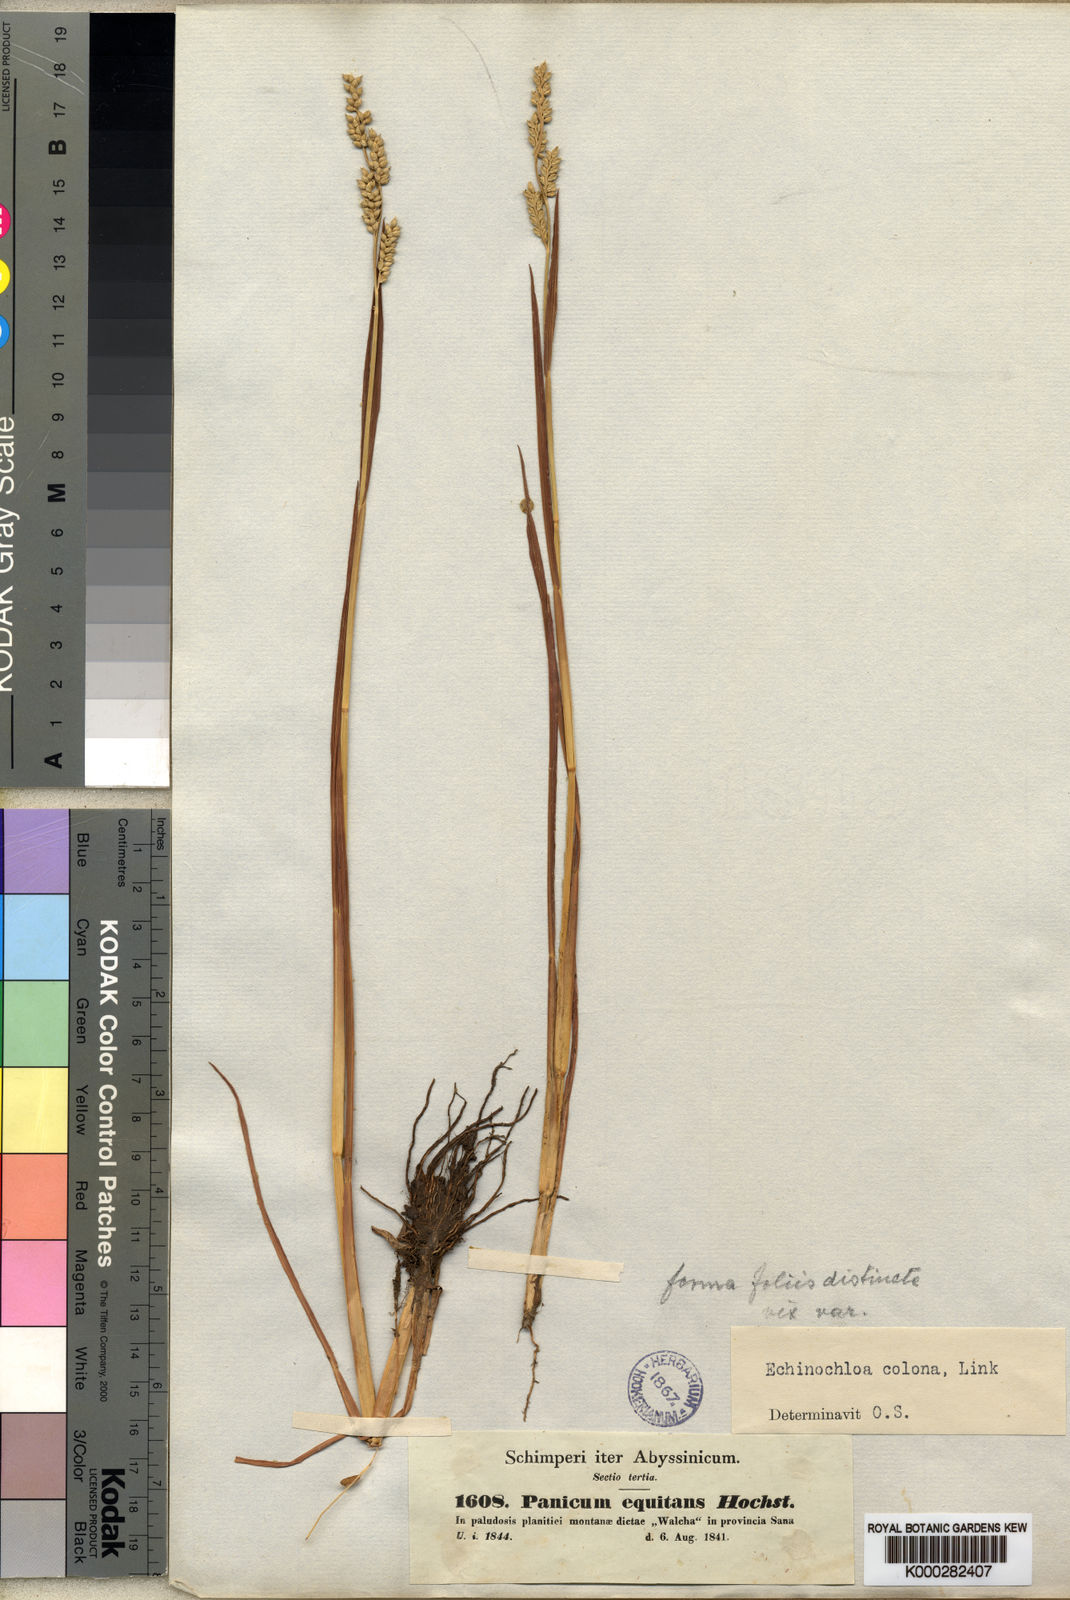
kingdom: Plantae
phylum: Tracheophyta
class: Liliopsida
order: Poales
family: Poaceae
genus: Echinochloa
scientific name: Echinochloa colonum
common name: Jungle rice
